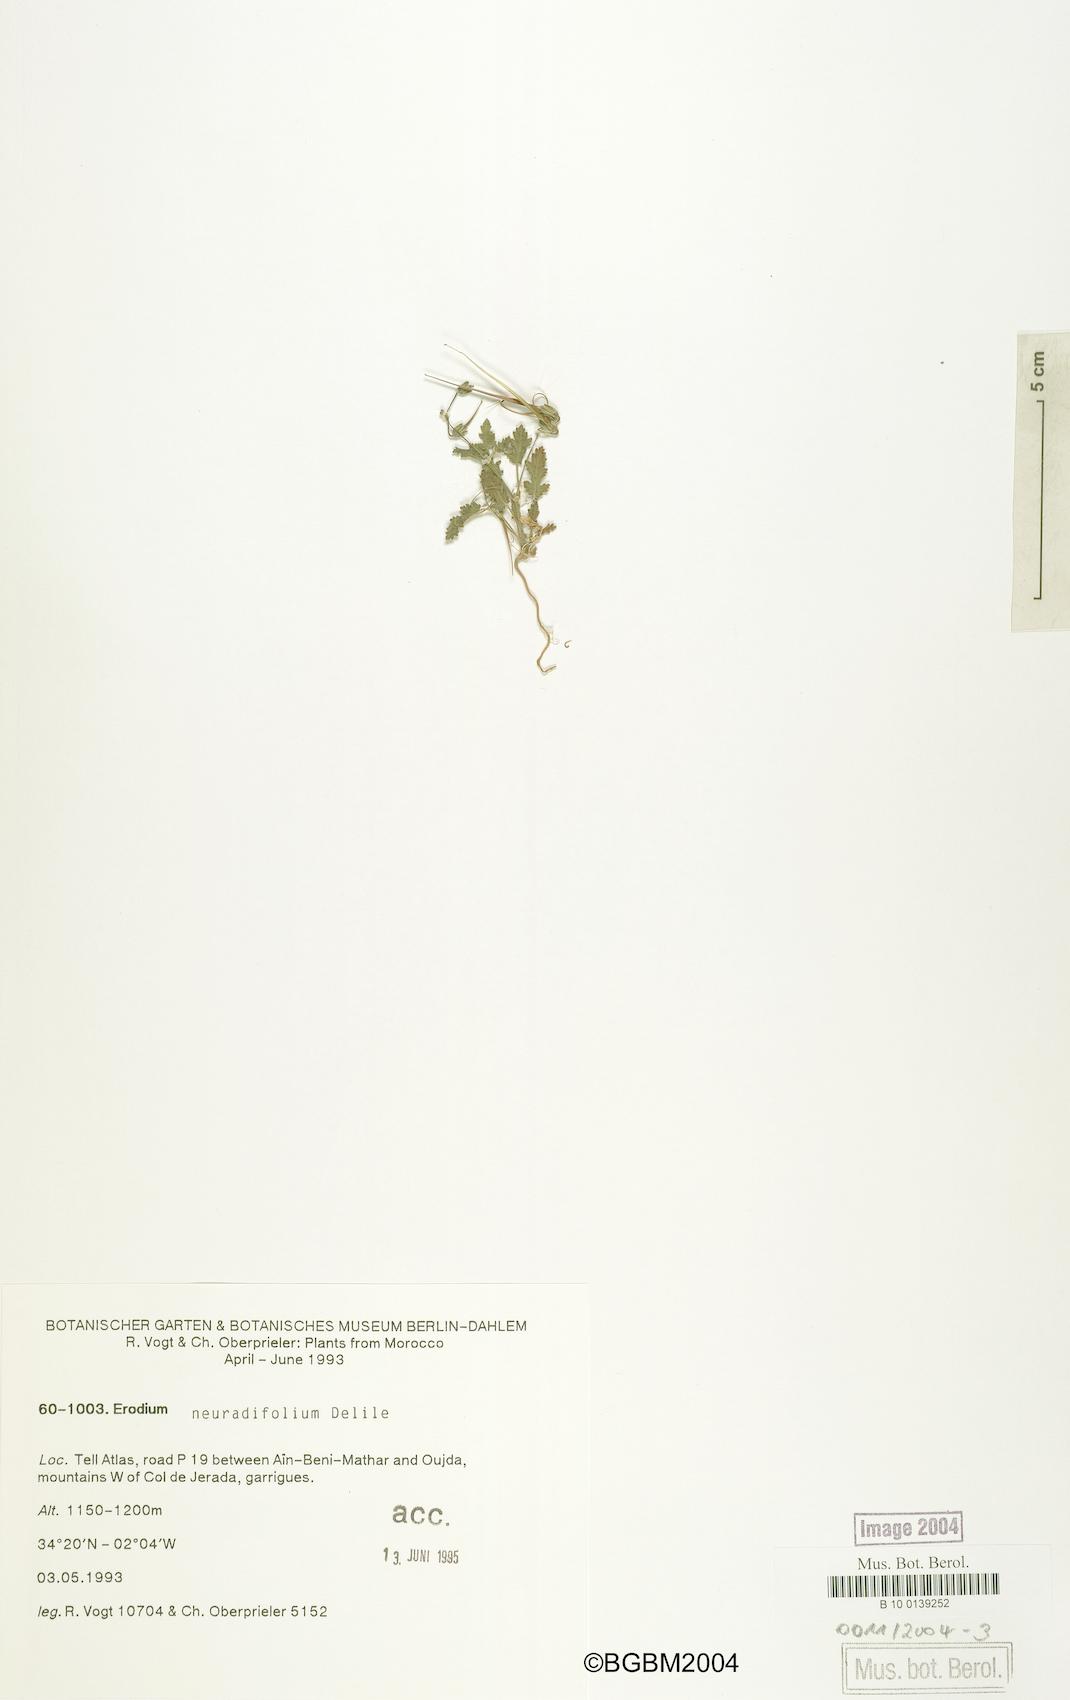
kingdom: Plantae
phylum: Tracheophyta
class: Magnoliopsida
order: Geraniales
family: Geraniaceae
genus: Erodium
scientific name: Erodium neuradifolium
